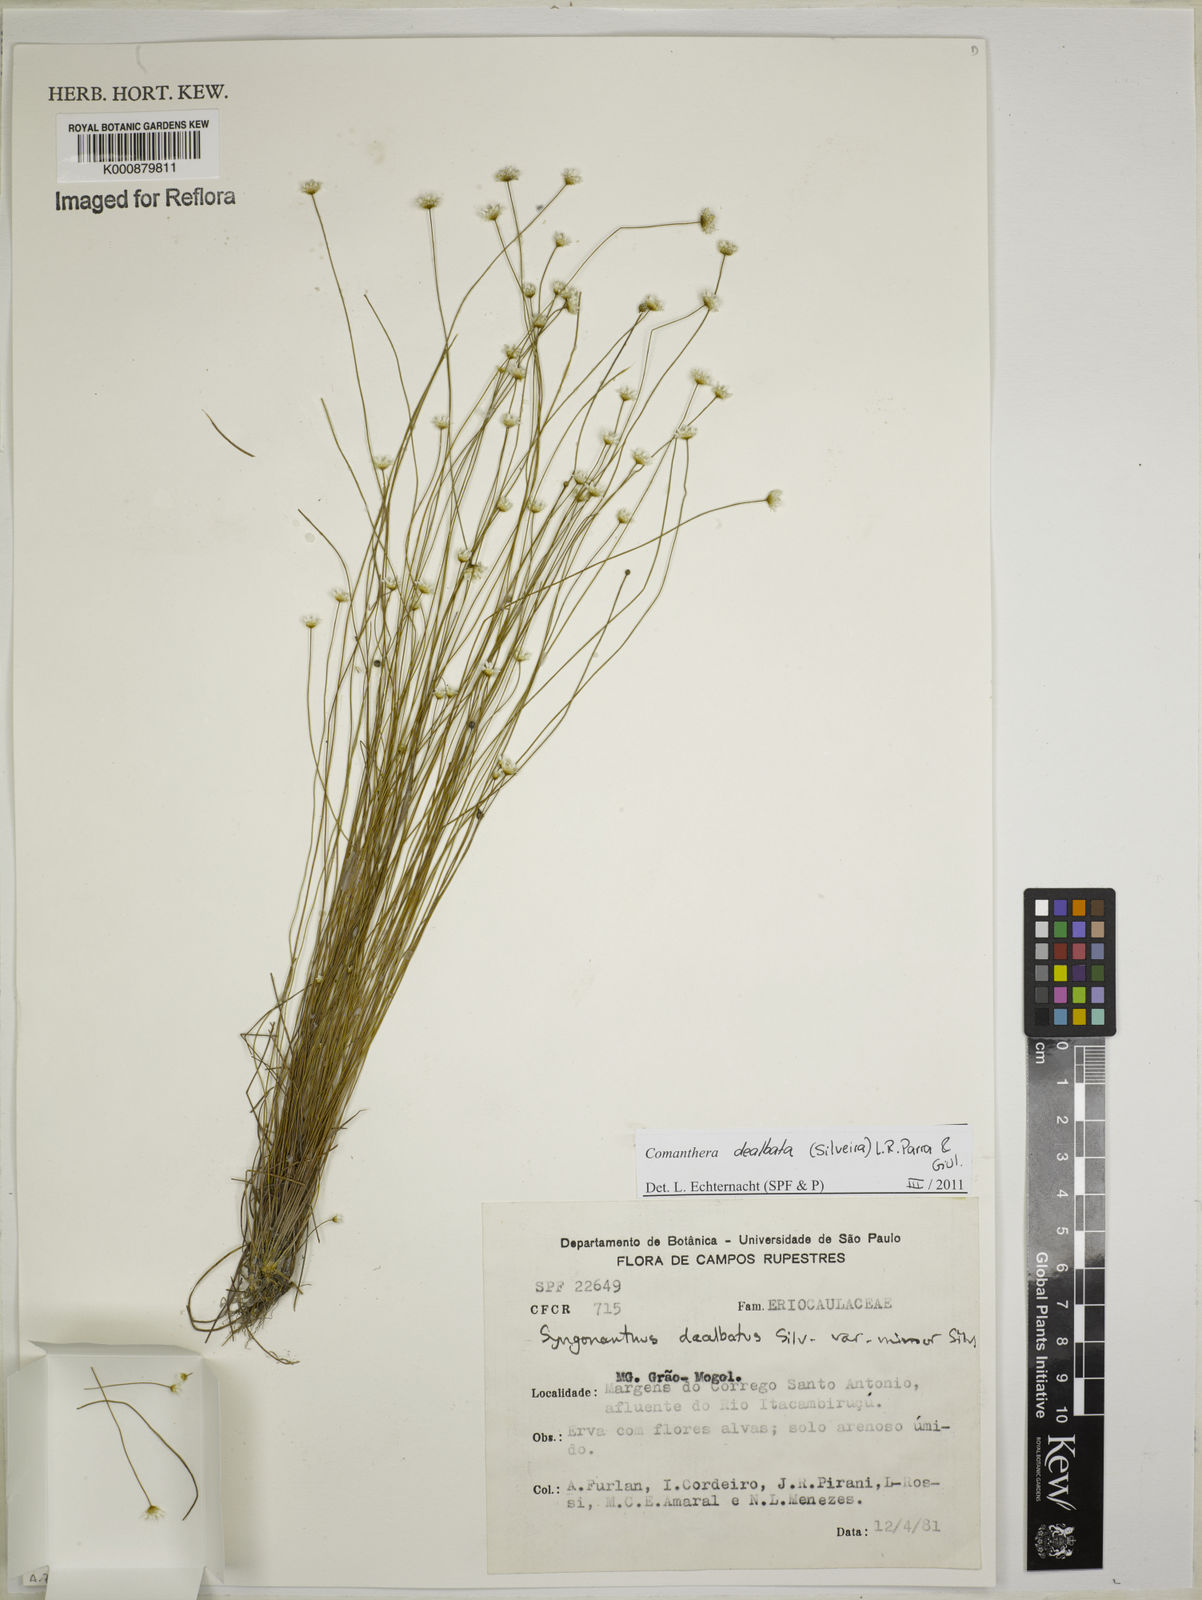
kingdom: Plantae
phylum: Tracheophyta
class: Liliopsida
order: Poales
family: Eriocaulaceae
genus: Comanthera
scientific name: Comanthera dealbata
